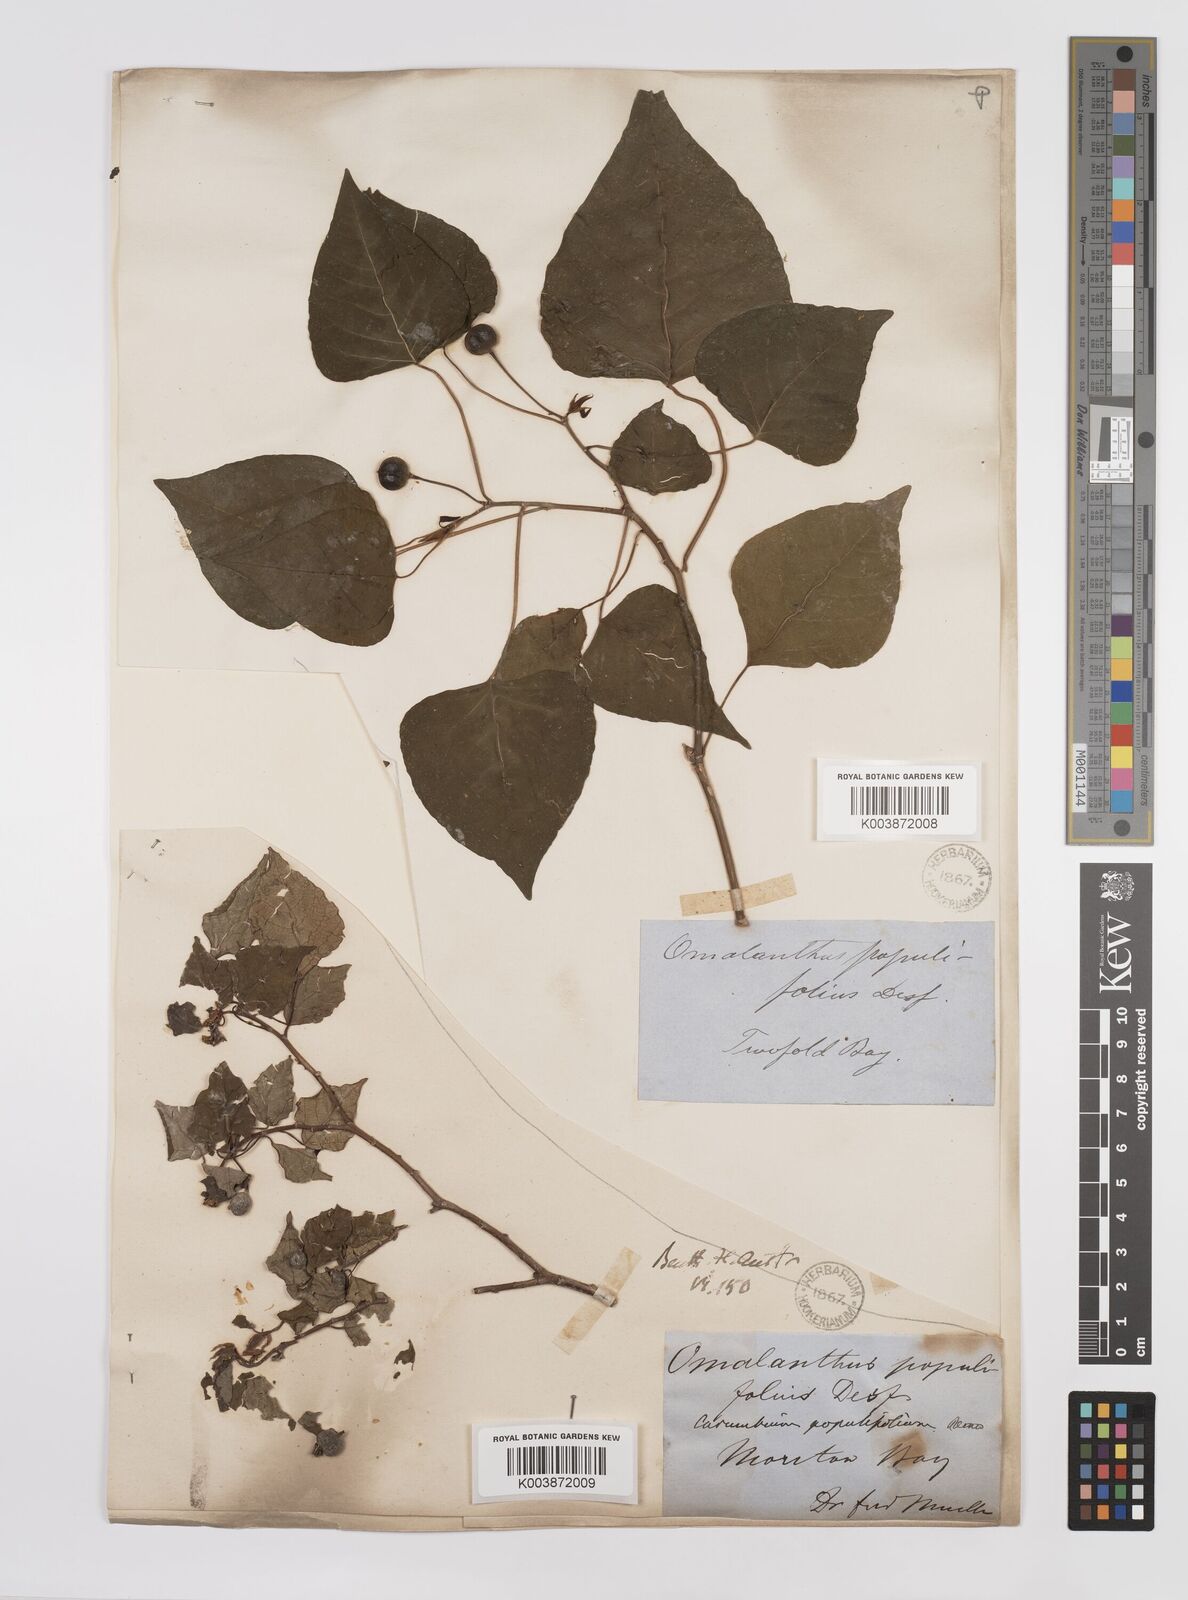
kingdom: Plantae
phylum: Tracheophyta
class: Magnoliopsida
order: Malpighiales
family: Euphorbiaceae
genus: Homalanthus
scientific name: Homalanthus populifolius
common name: Queensland poplar
